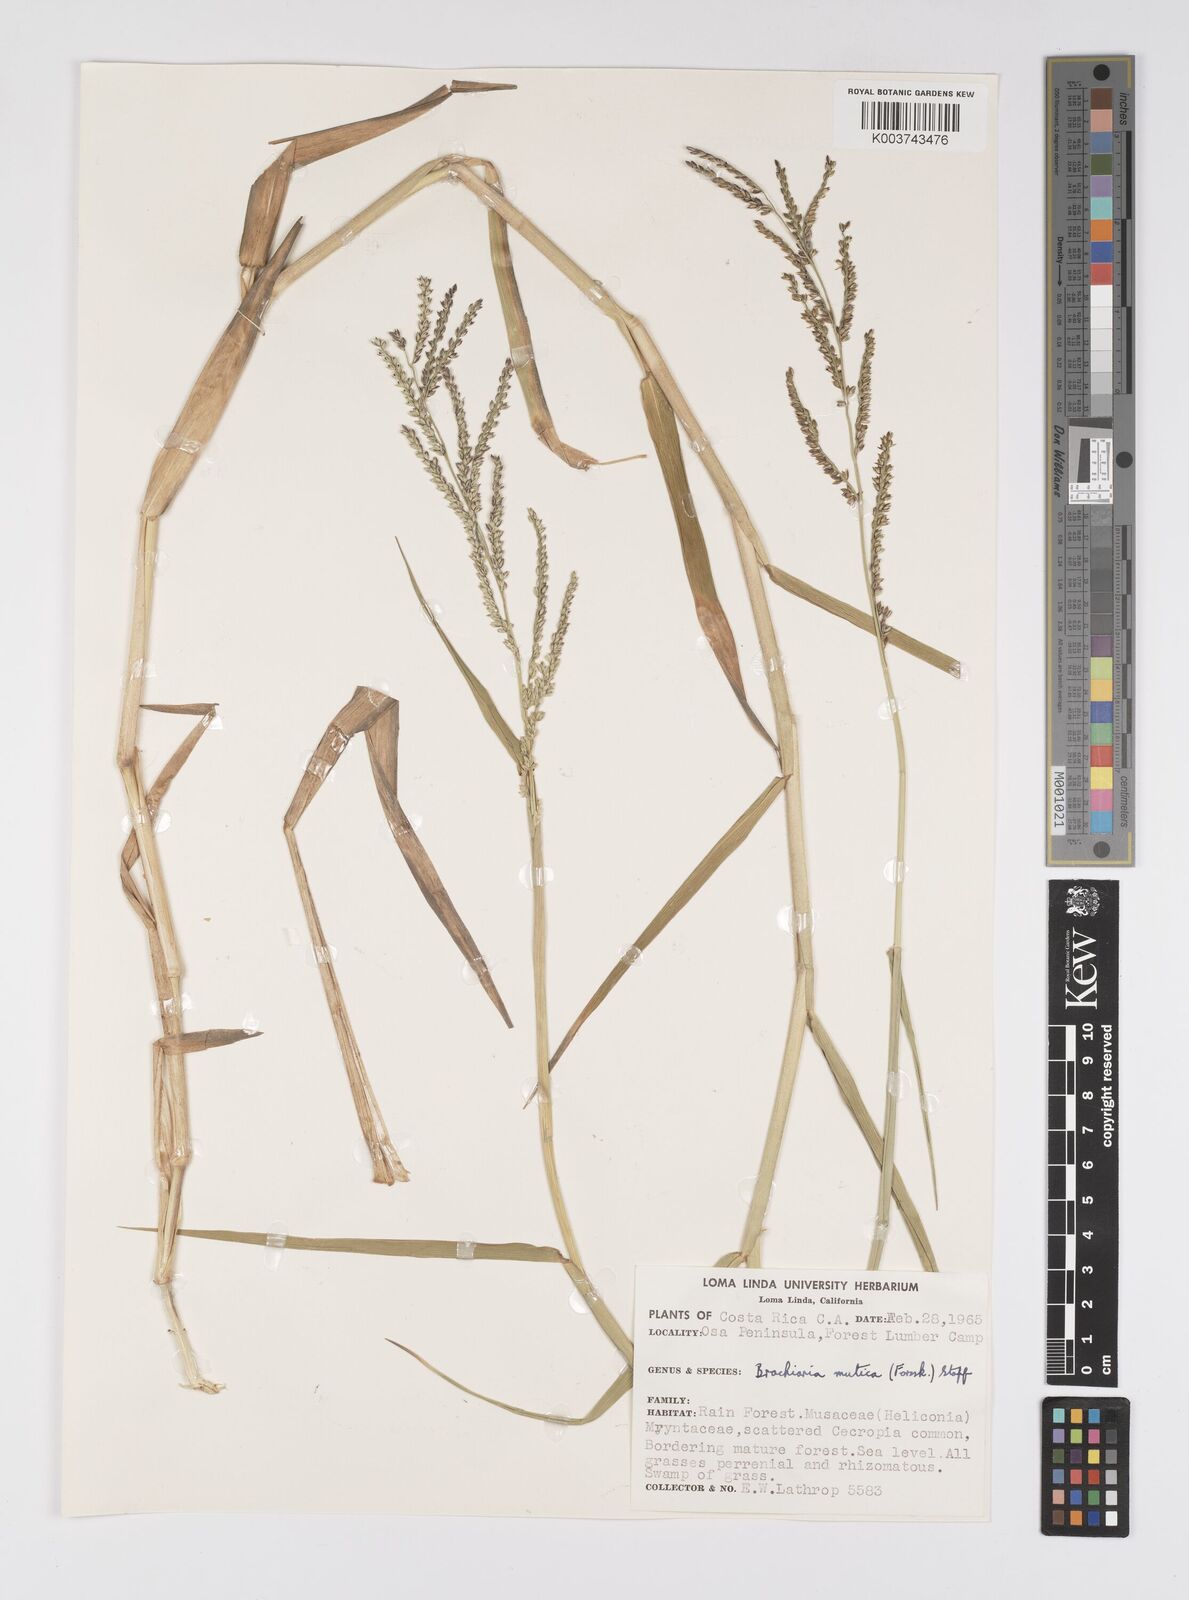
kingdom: Plantae
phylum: Tracheophyta
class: Liliopsida
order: Poales
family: Poaceae
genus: Urochloa
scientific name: Urochloa mutica
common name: Para grass
